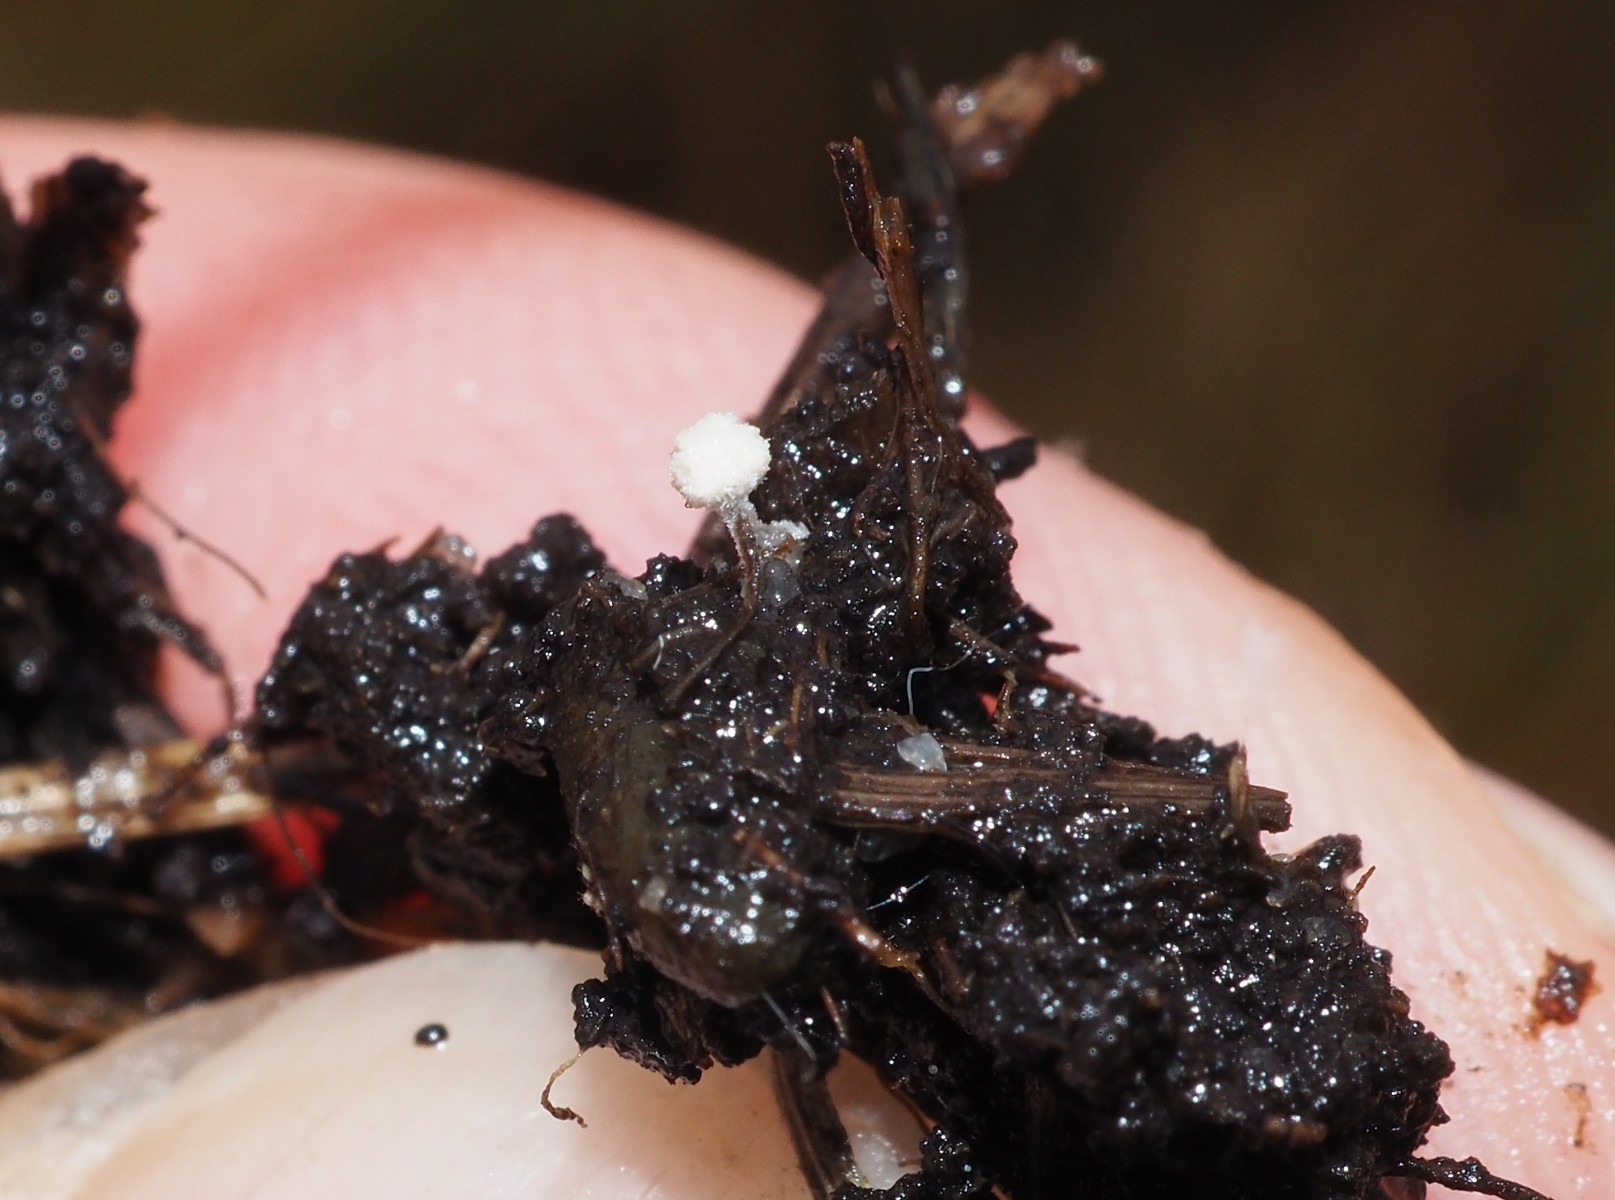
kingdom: Fungi
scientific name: Fungi
